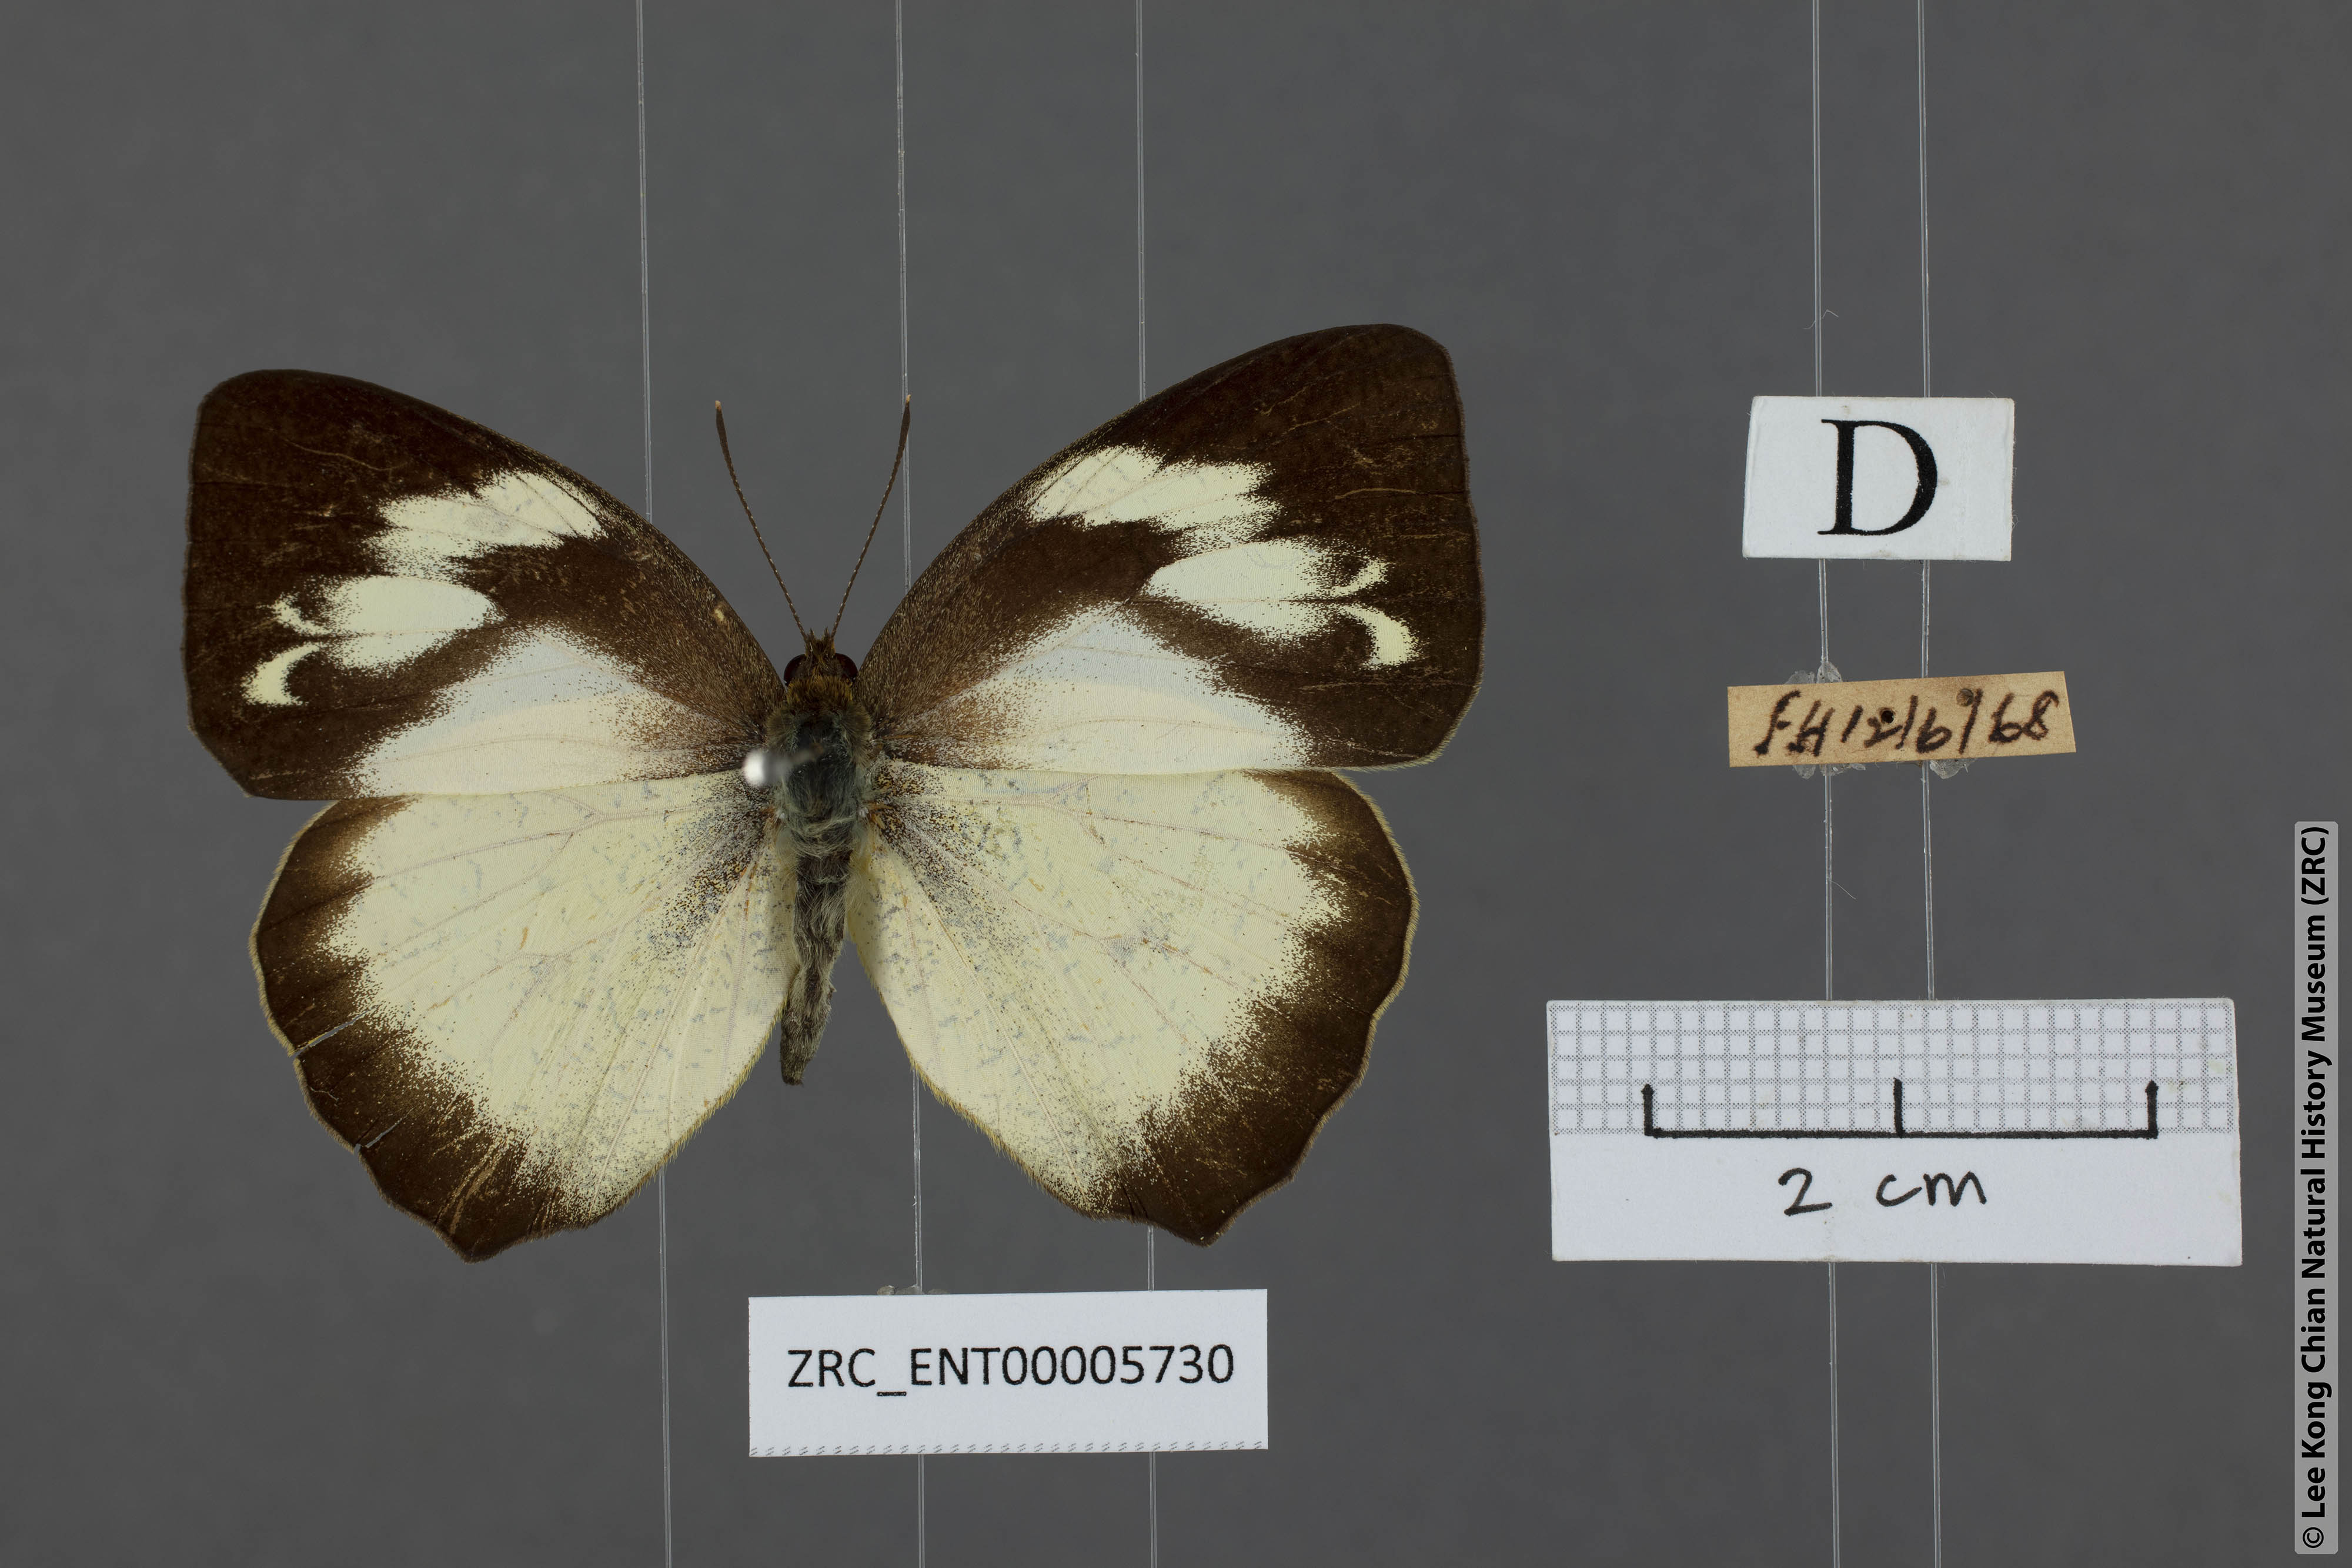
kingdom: Animalia
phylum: Arthropoda
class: Insecta
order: Lepidoptera
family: Pieridae
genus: Ixias
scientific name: Ixias pyrene
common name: Yellow orange tip
